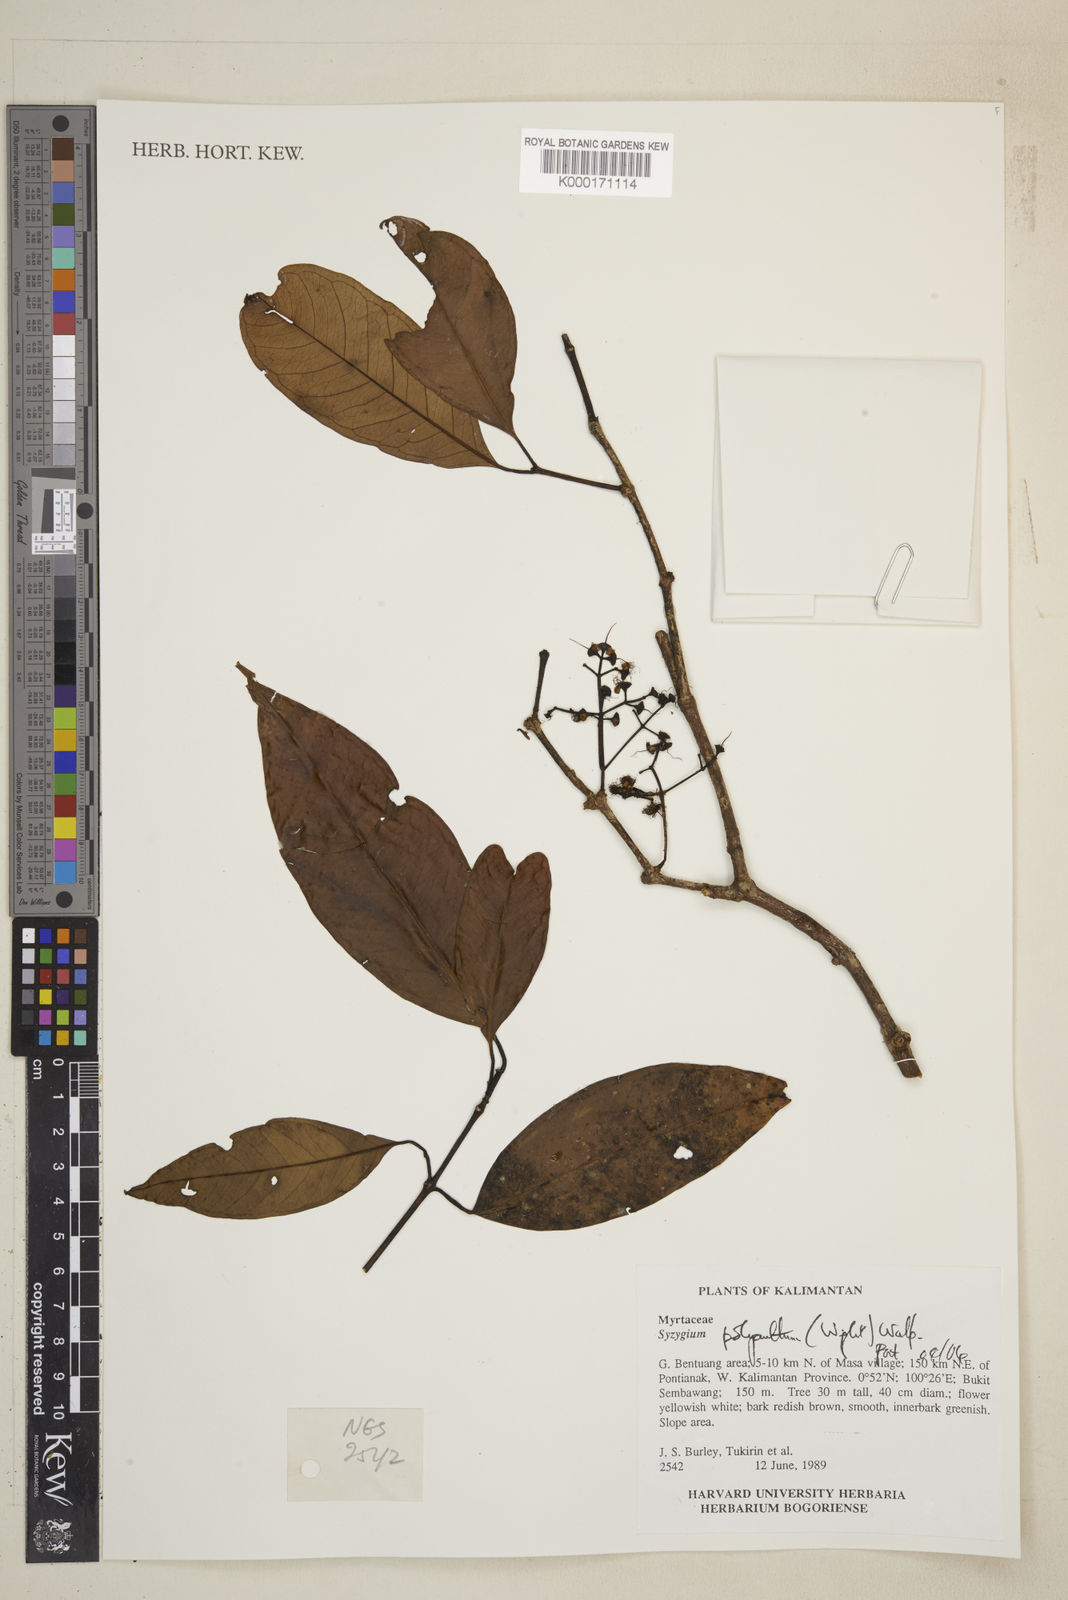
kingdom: Plantae
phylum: Tracheophyta
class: Magnoliopsida
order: Myrtales
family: Myrtaceae
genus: Syzygium
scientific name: Syzygium polyanthum
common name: Indonesian bayleaf
